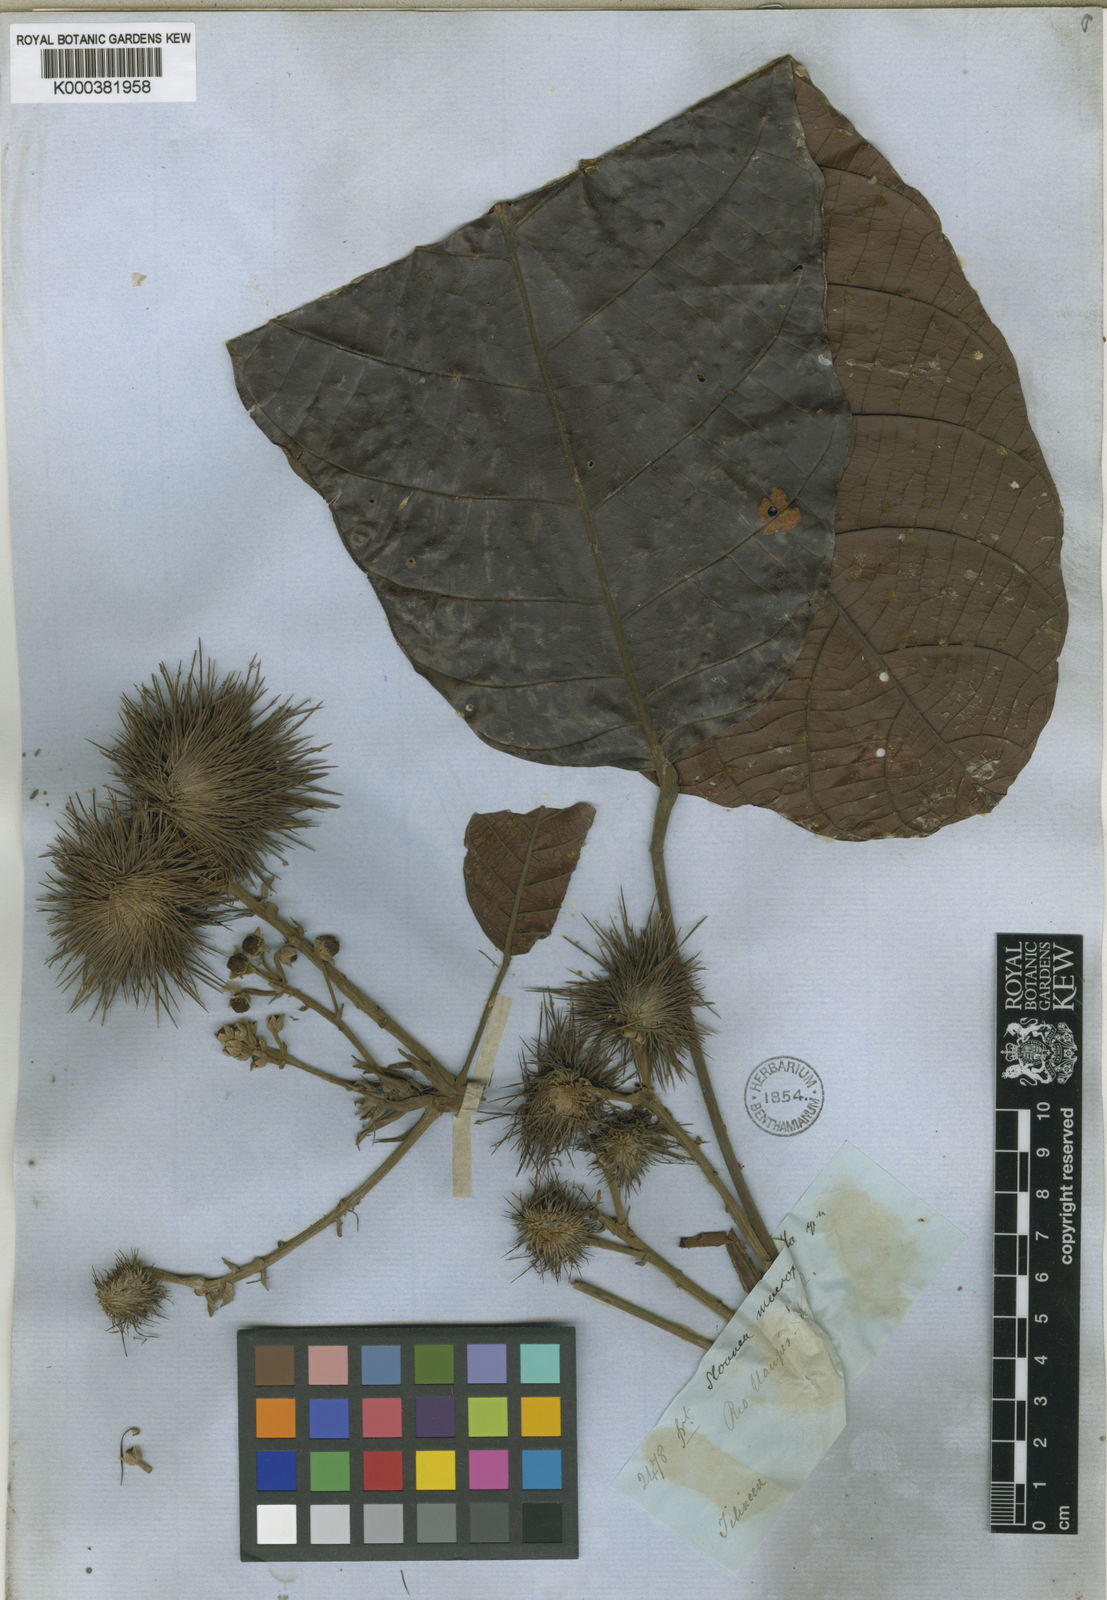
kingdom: Plantae
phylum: Tracheophyta
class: Magnoliopsida
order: Oxalidales
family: Elaeocarpaceae
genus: Sloanea
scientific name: Sloanea macrophylla
